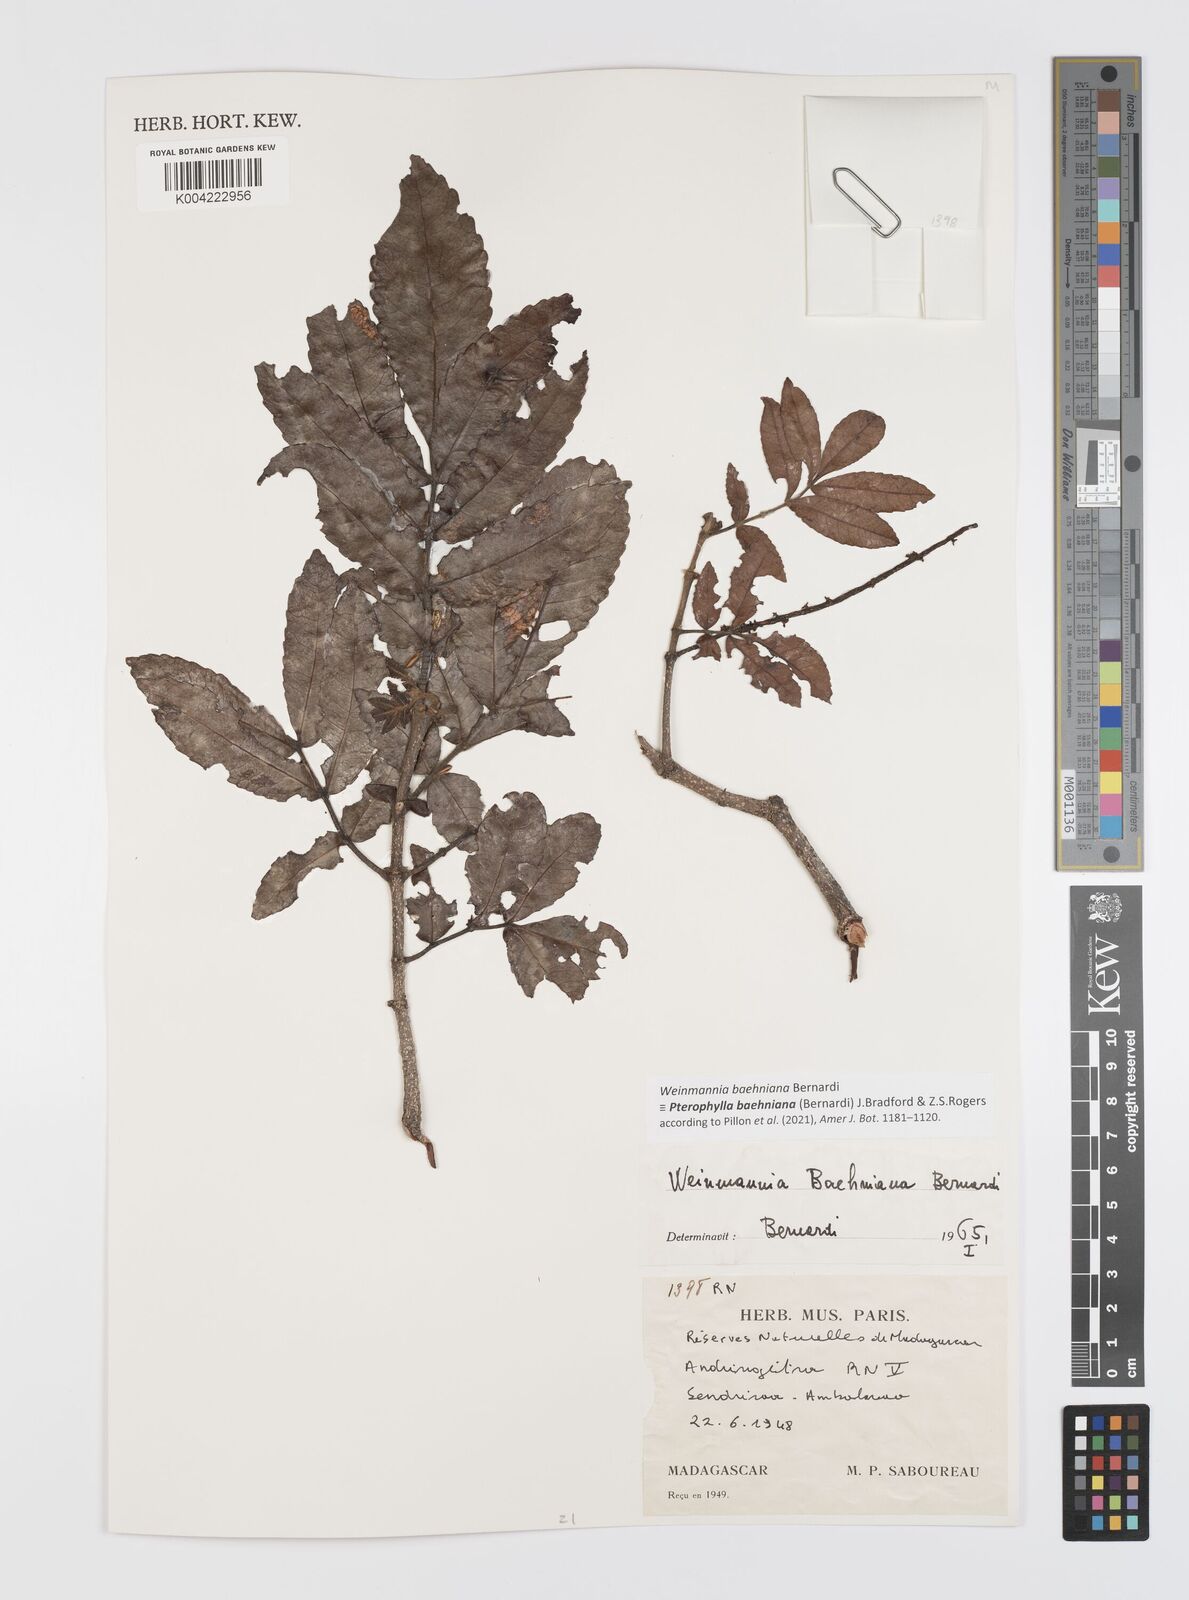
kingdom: Plantae
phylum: Tracheophyta
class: Magnoliopsida
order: Oxalidales
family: Cunoniaceae
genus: Pterophylla
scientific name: Pterophylla baehniana
